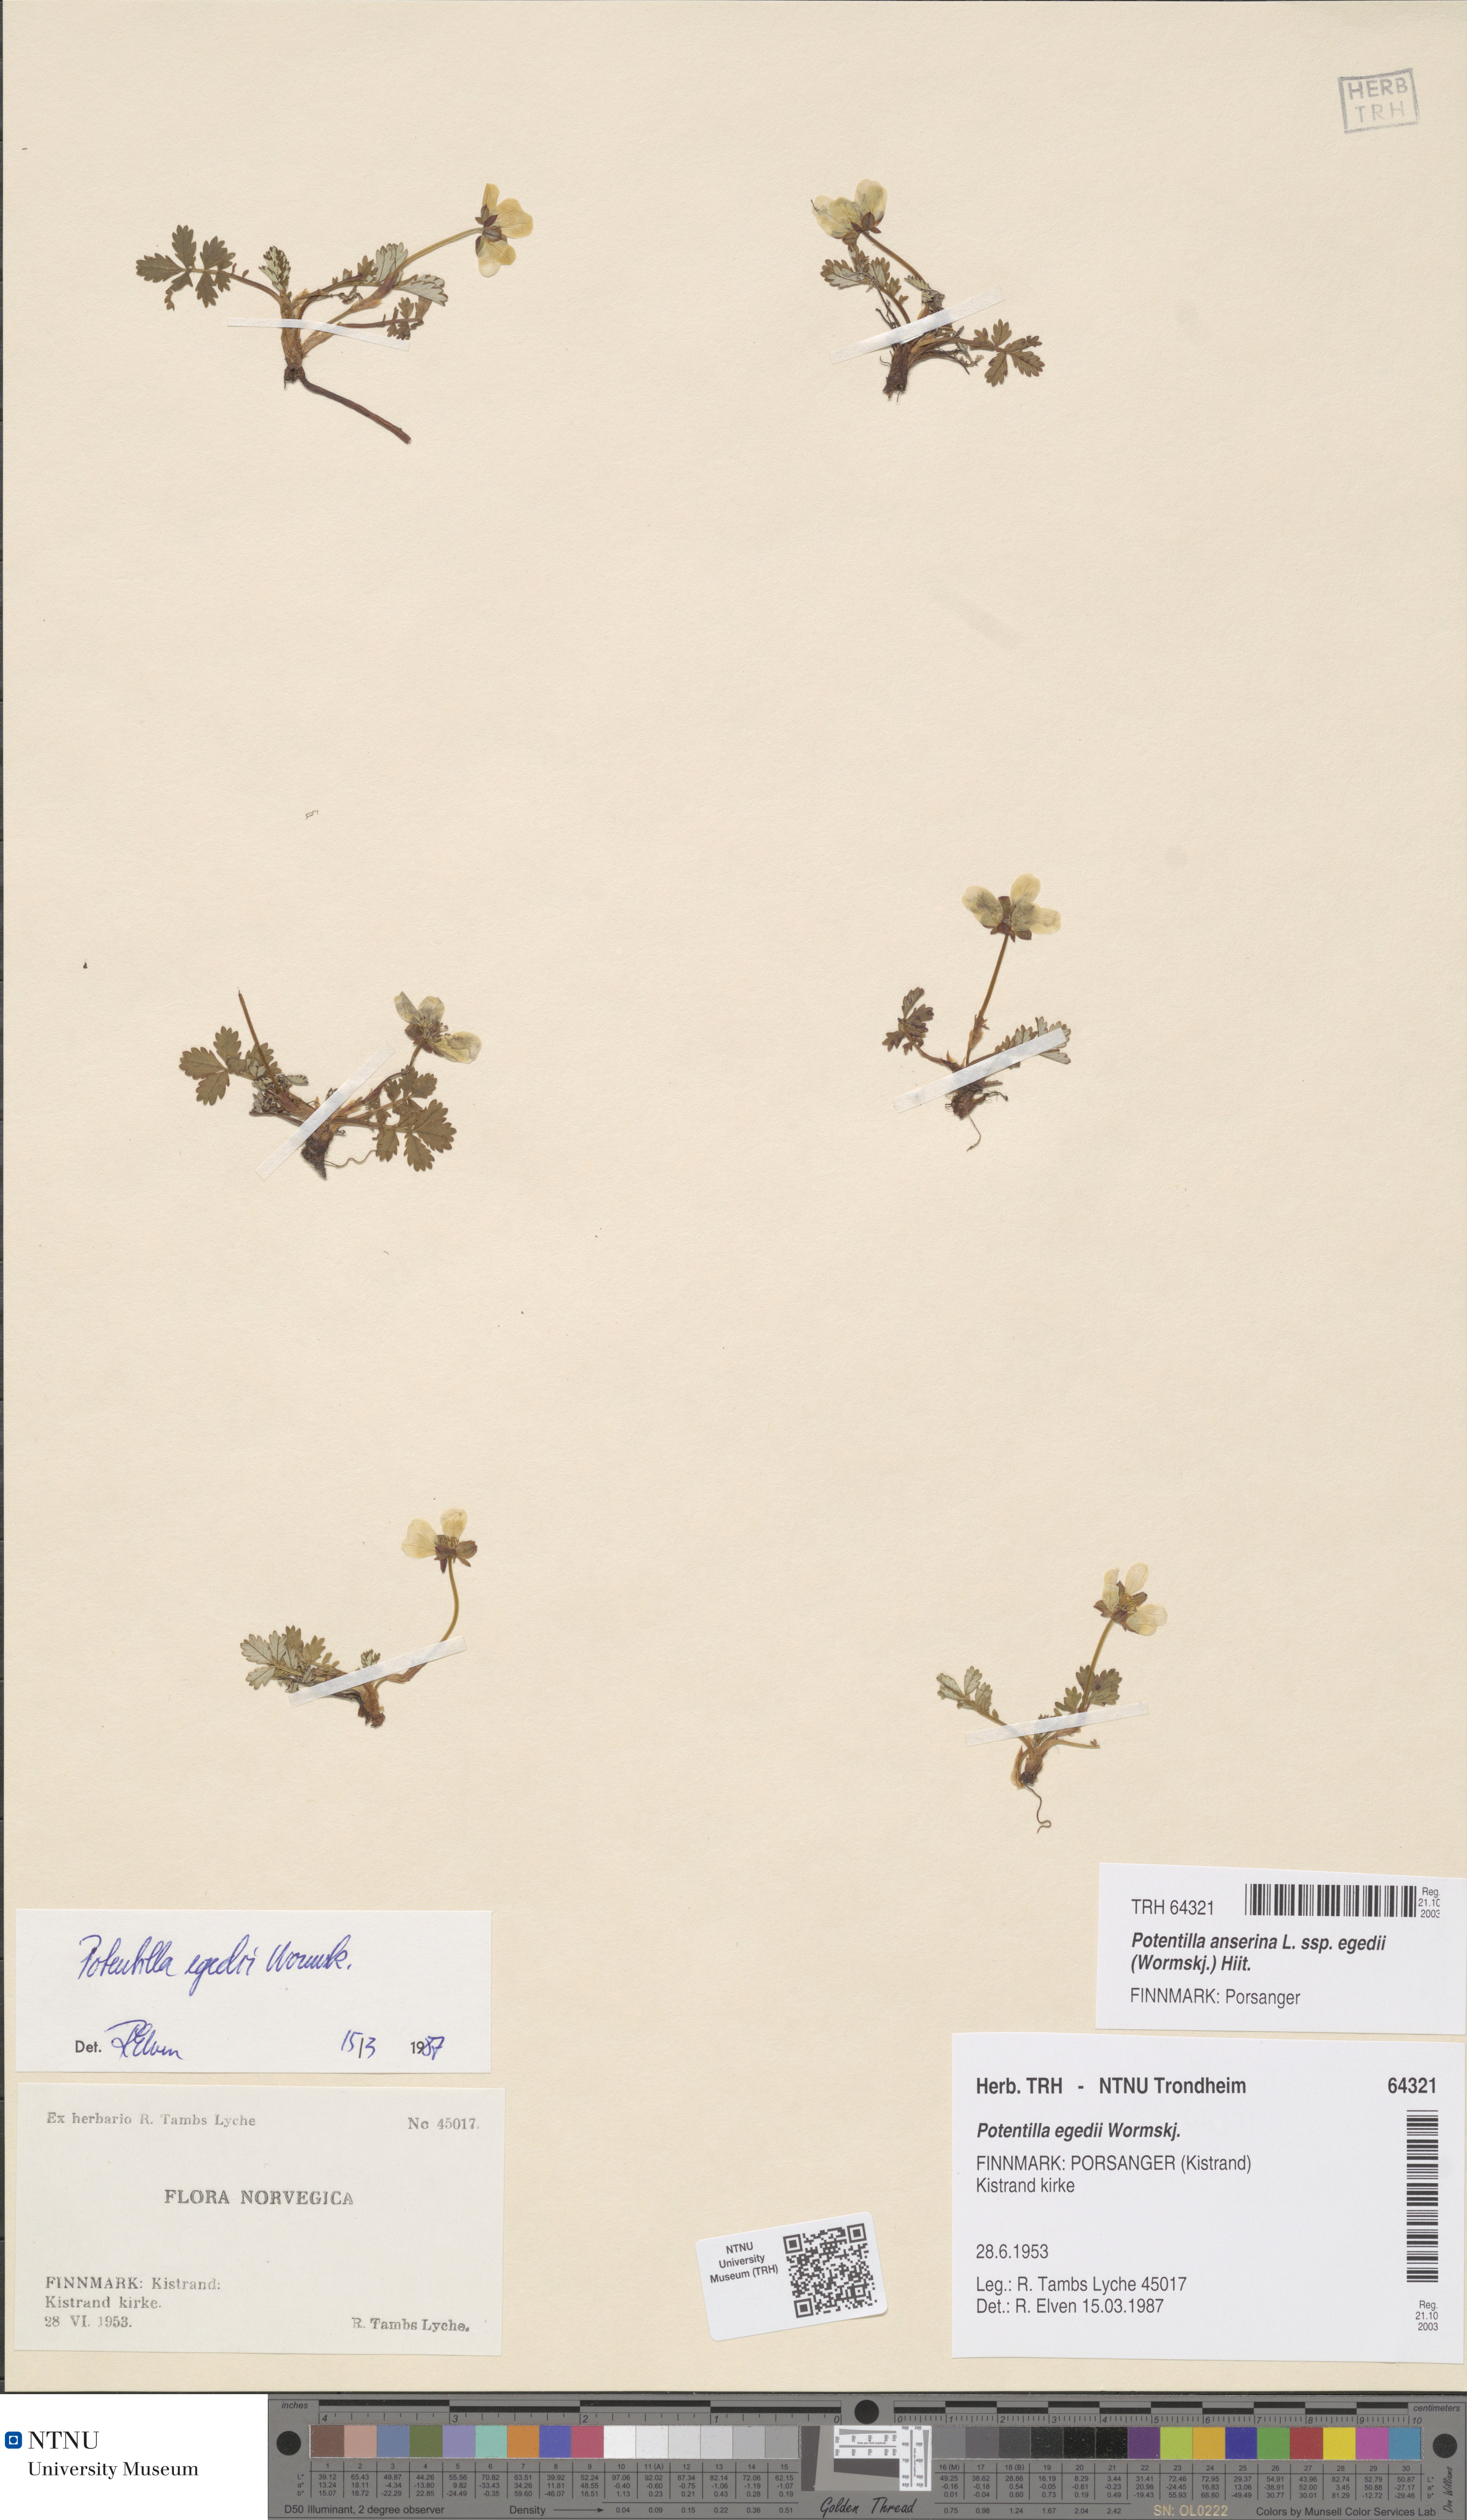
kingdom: Plantae
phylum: Tracheophyta
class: Magnoliopsida
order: Rosales
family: Rosaceae
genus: Argentina
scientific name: Argentina anserina
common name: Common silverweed
